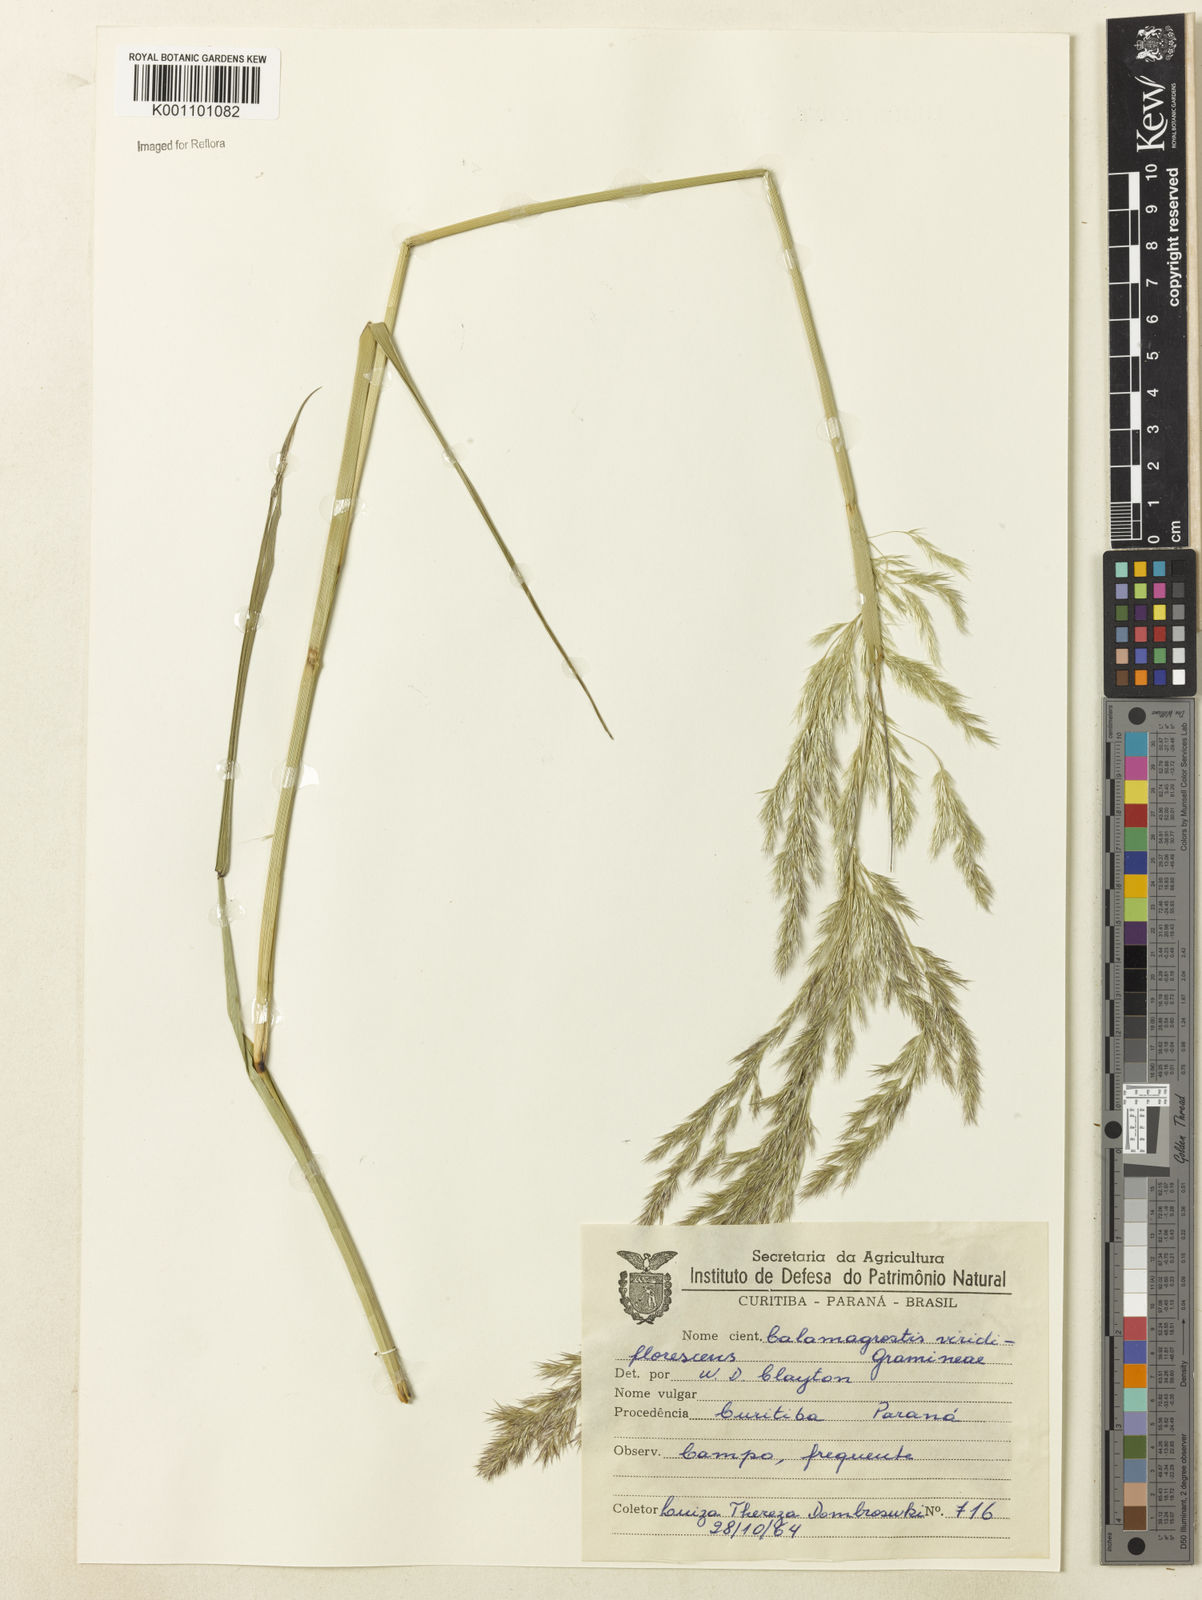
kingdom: Plantae
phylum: Tracheophyta
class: Liliopsida
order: Poales
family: Poaceae
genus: Cinnagrostis
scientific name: Cinnagrostis viridiflavescens
